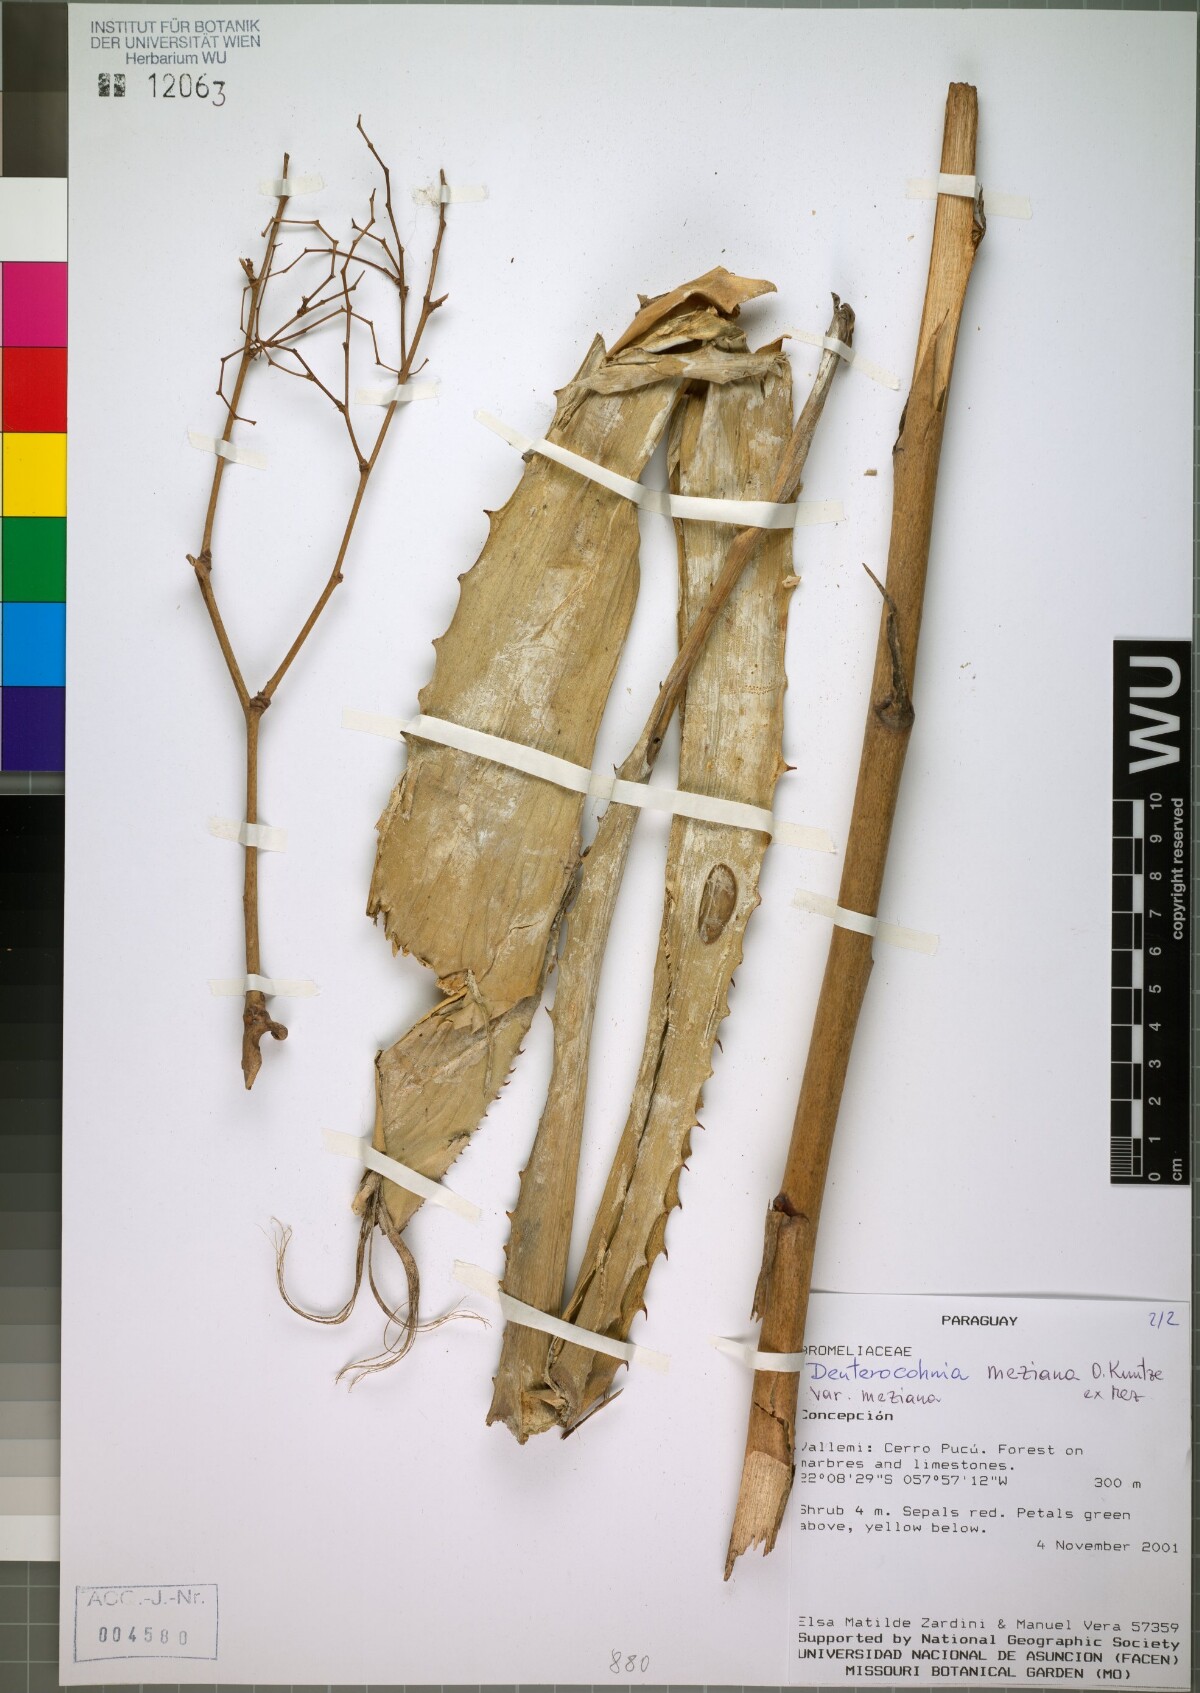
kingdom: Plantae
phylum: Tracheophyta
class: Liliopsida
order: Poales
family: Bromeliaceae
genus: Deuterocohnia
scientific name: Deuterocohnia meziana
